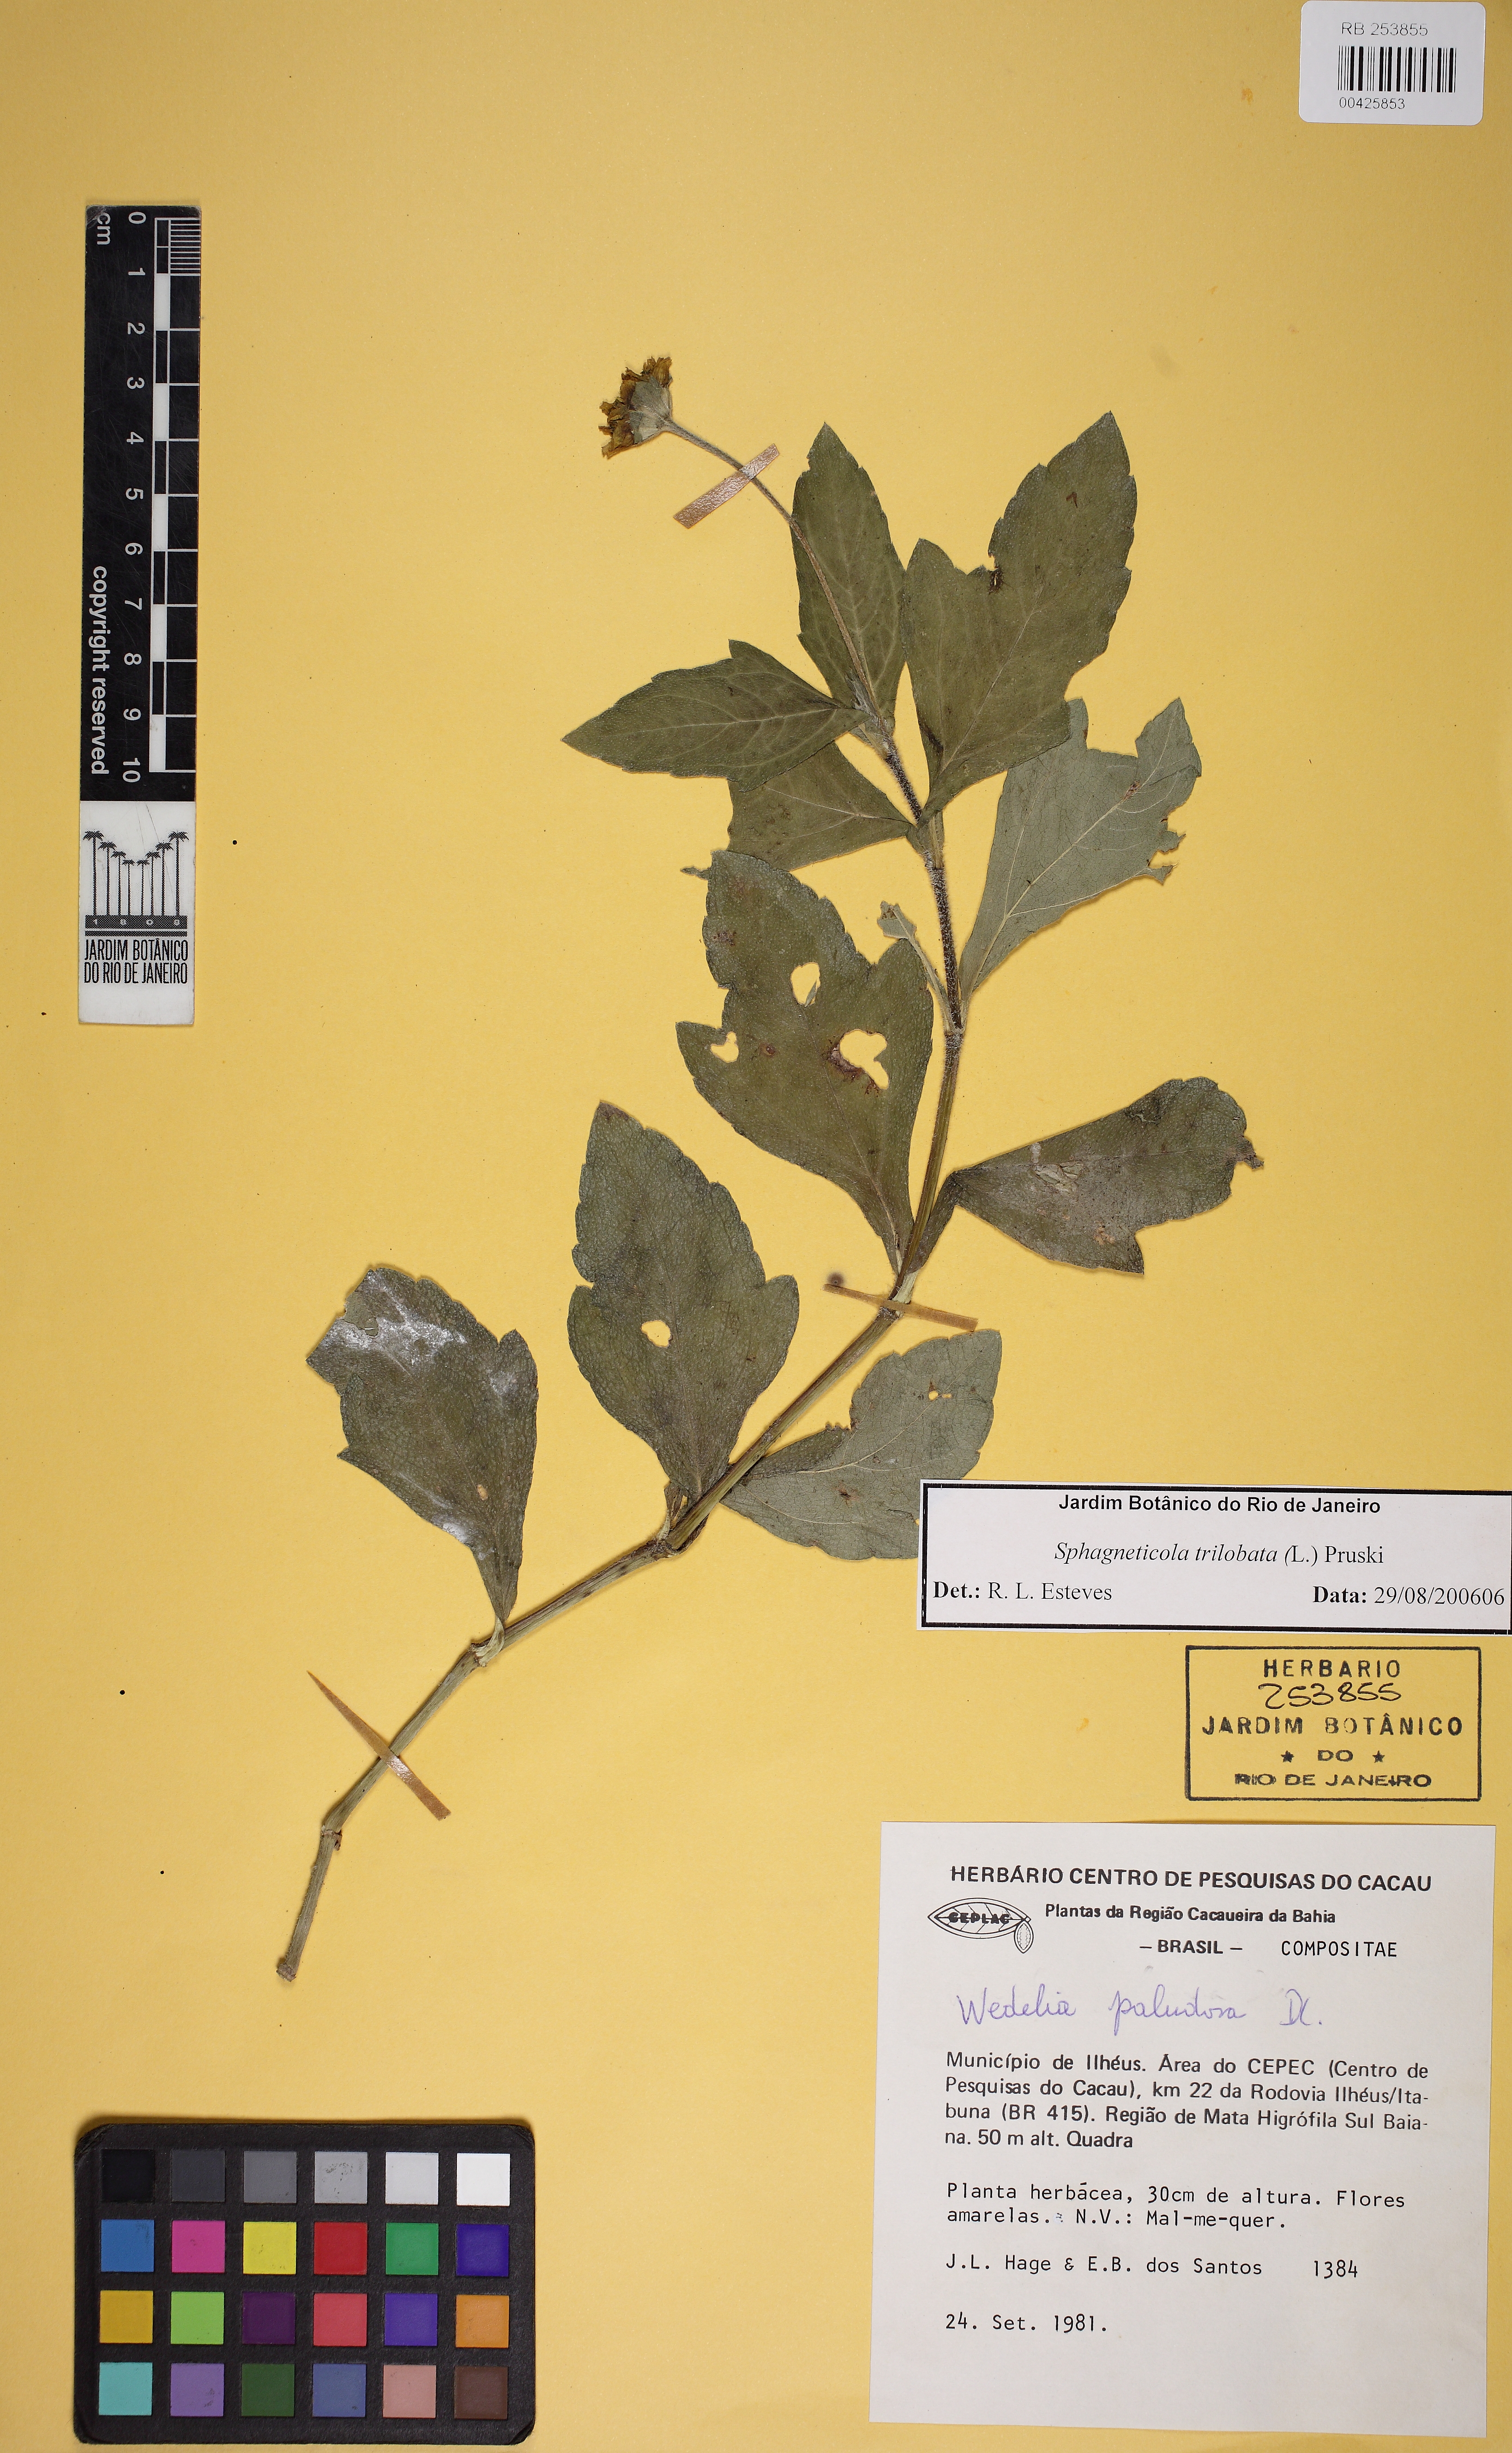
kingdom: Plantae
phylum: Tracheophyta
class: Magnoliopsida
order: Asterales
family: Asteraceae
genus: Sphagneticola
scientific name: Sphagneticola trilobata
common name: Bay biscayne creeping-oxeye
